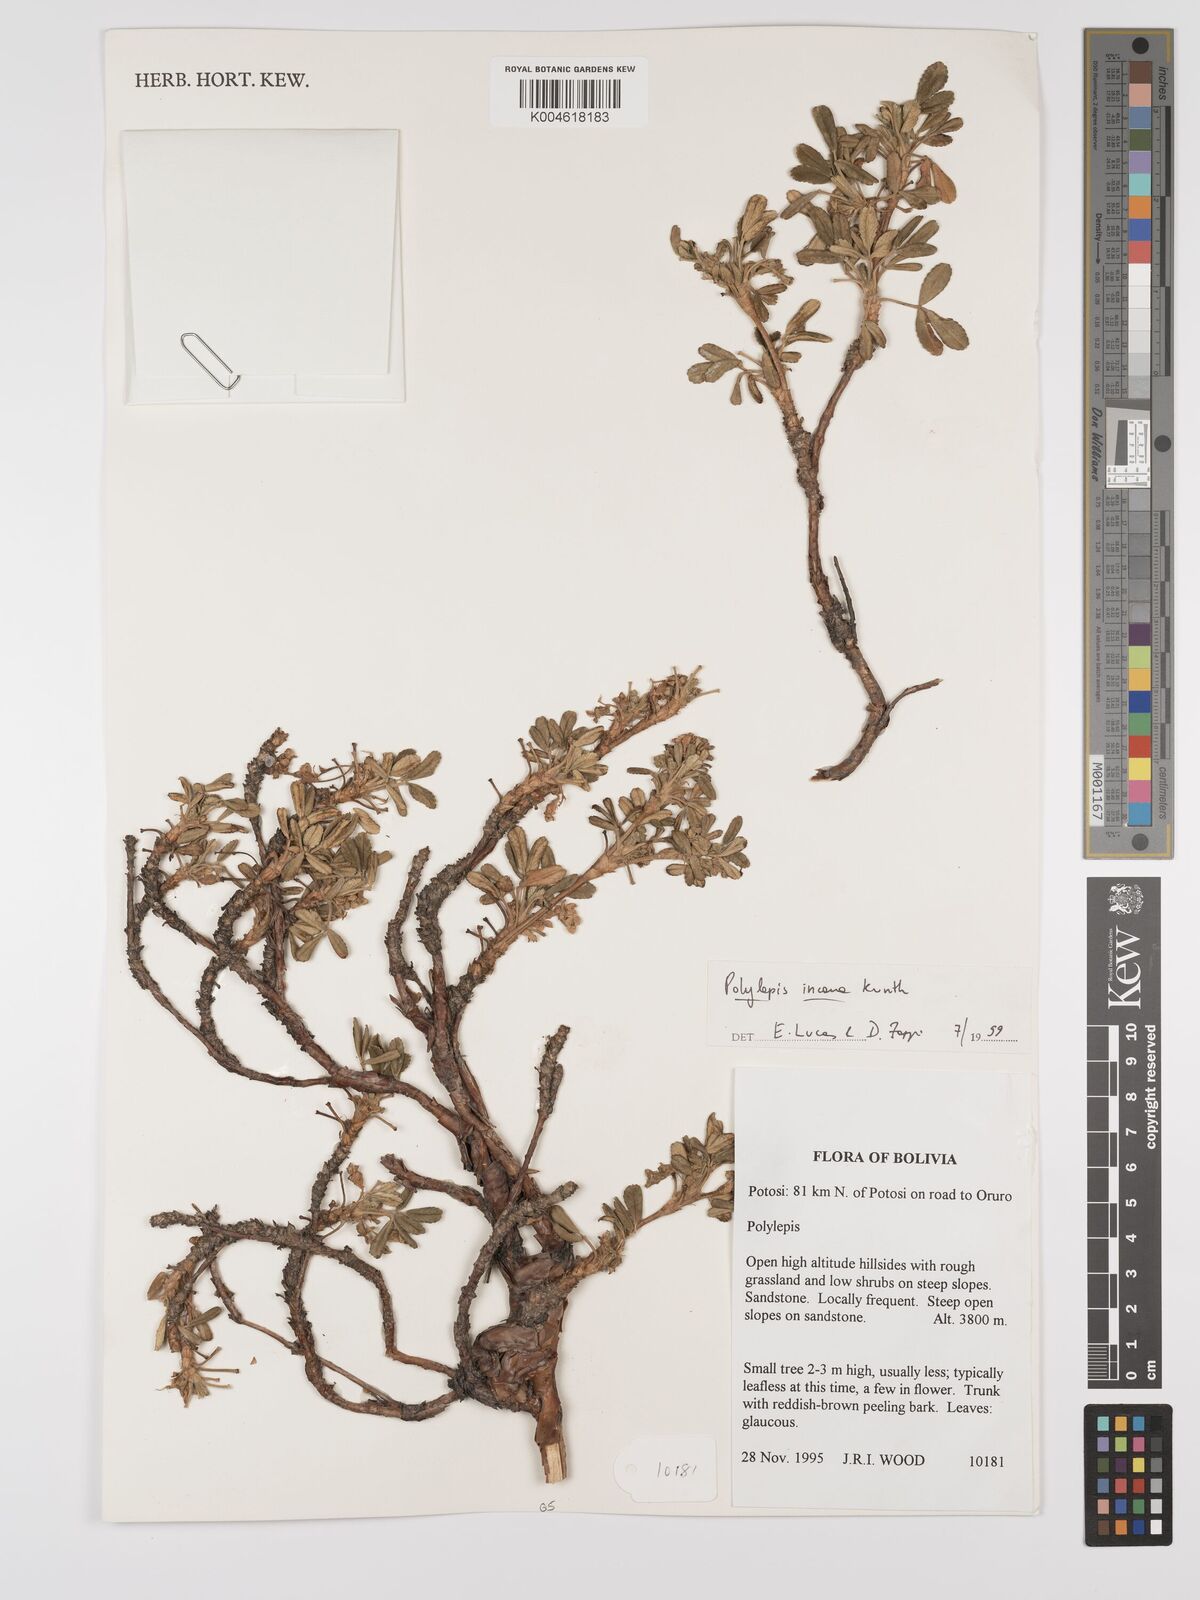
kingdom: Plantae
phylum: Tracheophyta
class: Magnoliopsida
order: Rosales
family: Rosaceae
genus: Polylepis
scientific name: Polylepis incana
